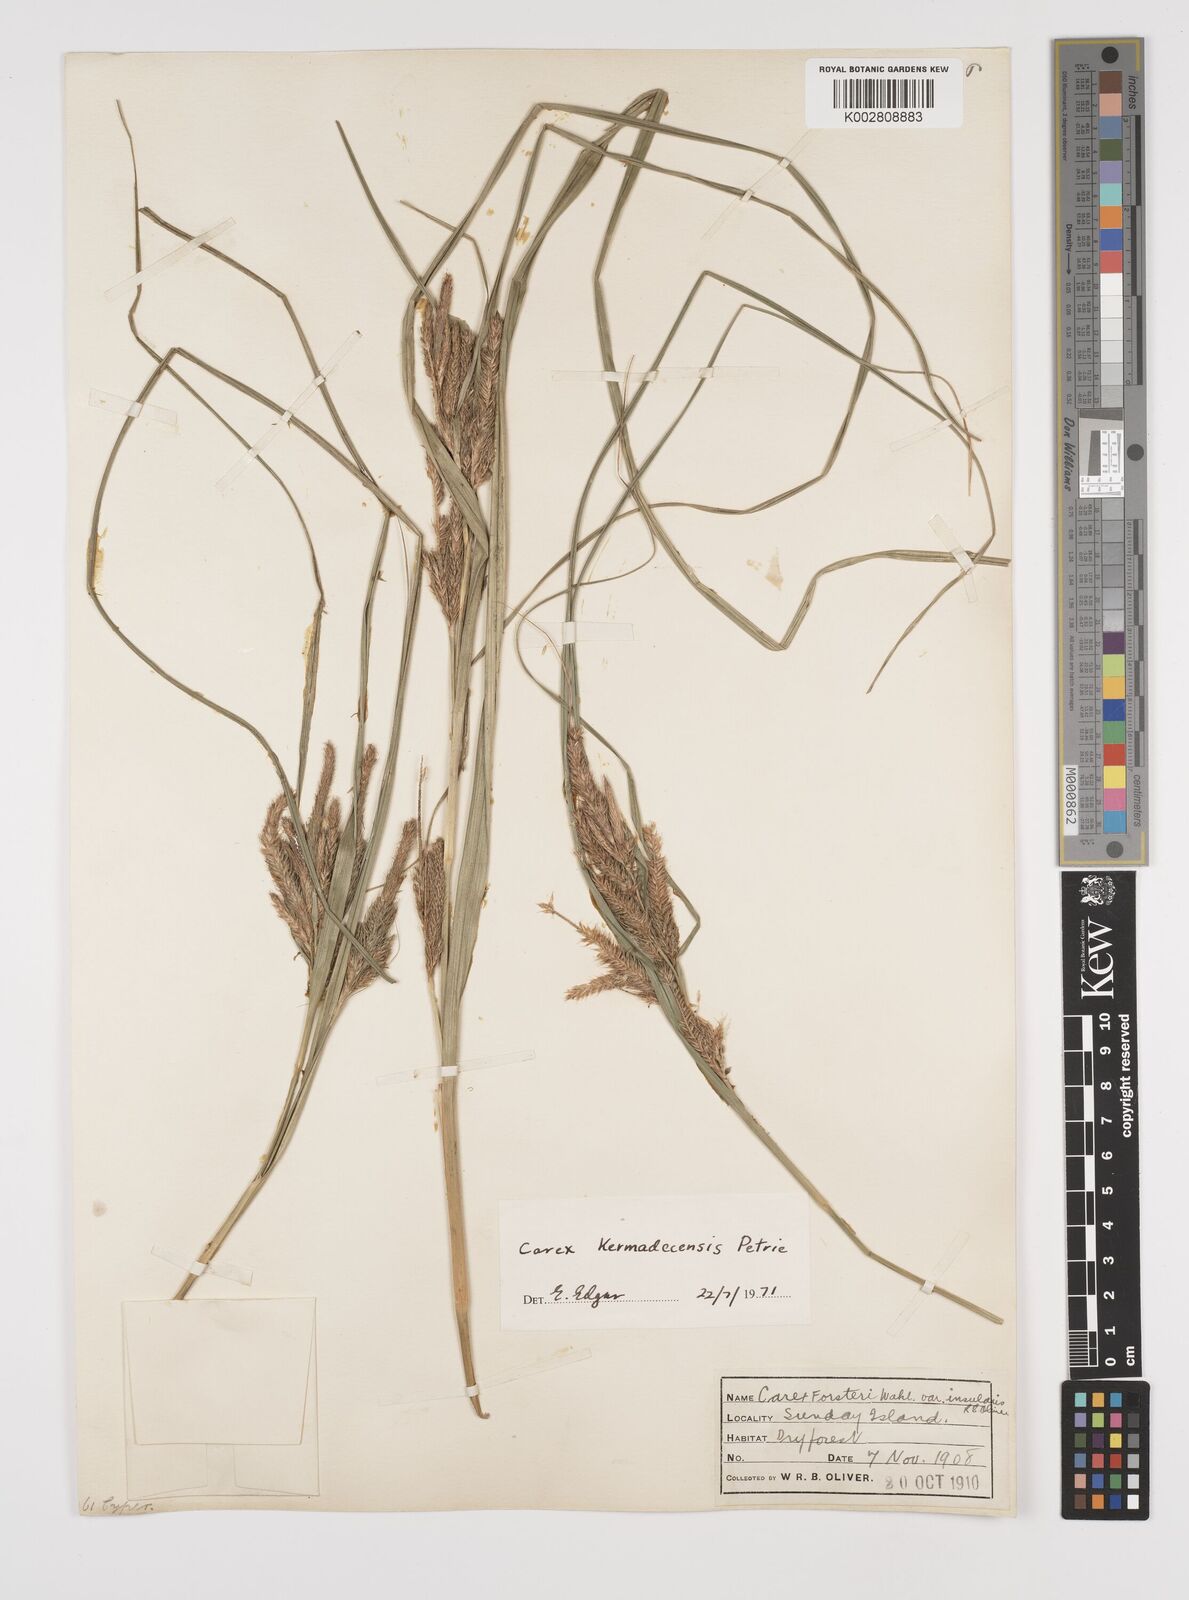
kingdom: Plantae
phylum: Tracheophyta
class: Liliopsida
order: Poales
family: Cyperaceae
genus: Carex
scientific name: Carex forsteri
